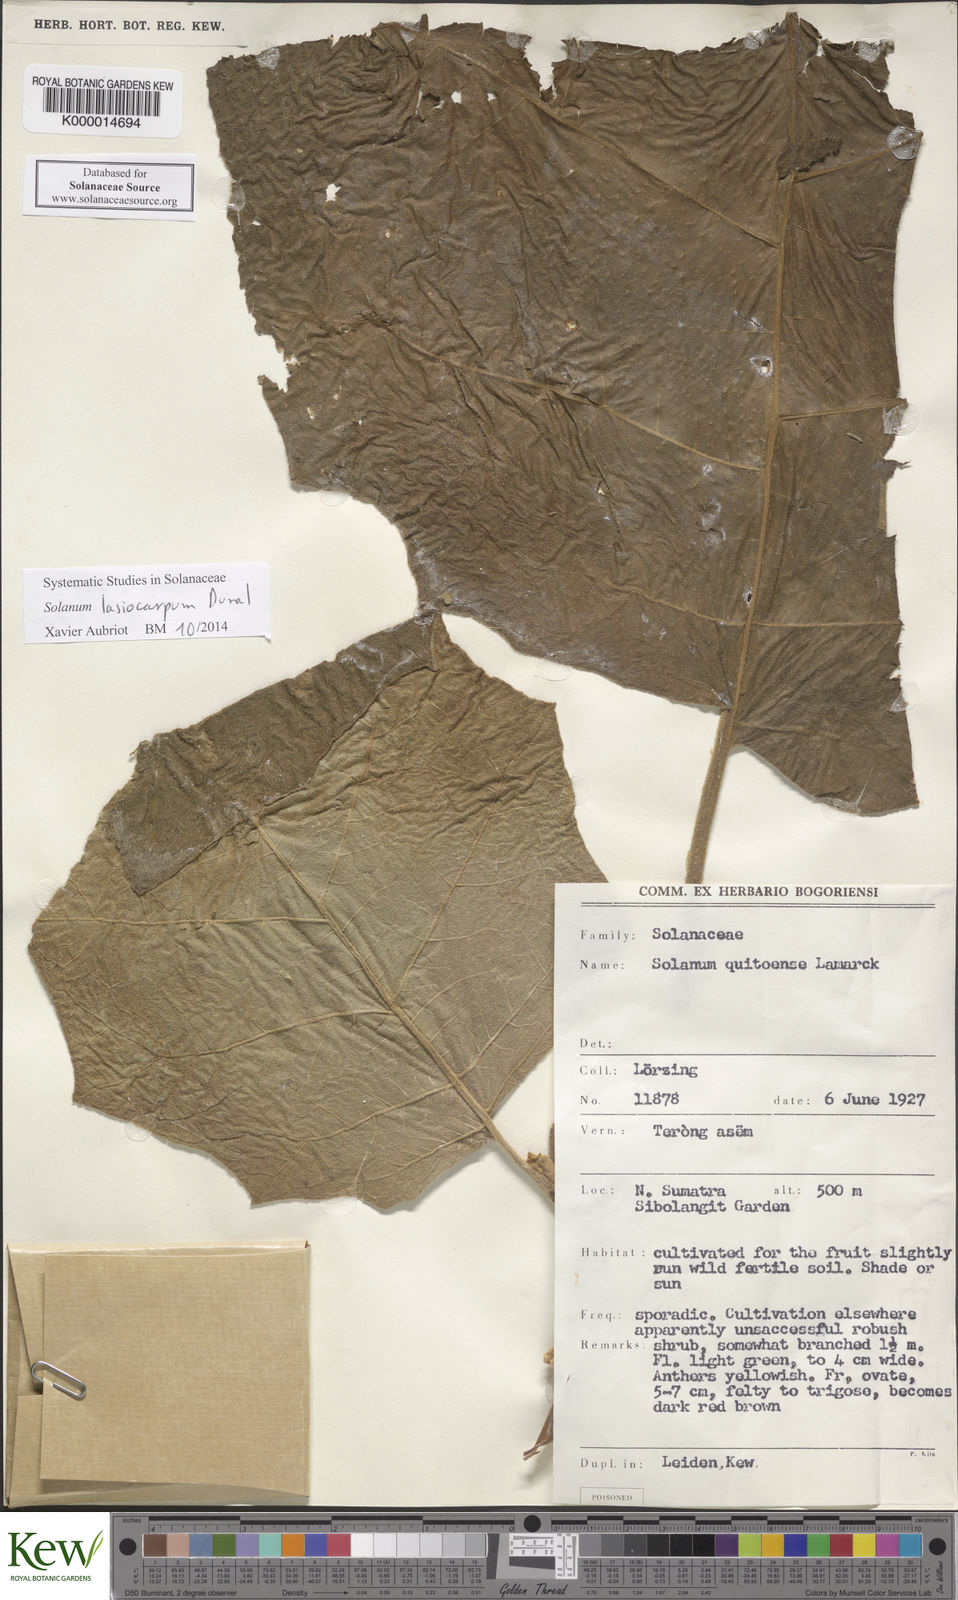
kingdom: Plantae
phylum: Tracheophyta
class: Magnoliopsida
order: Solanales
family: Solanaceae
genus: Solanum
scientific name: Solanum lasiocarpum
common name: Indian nightshade
